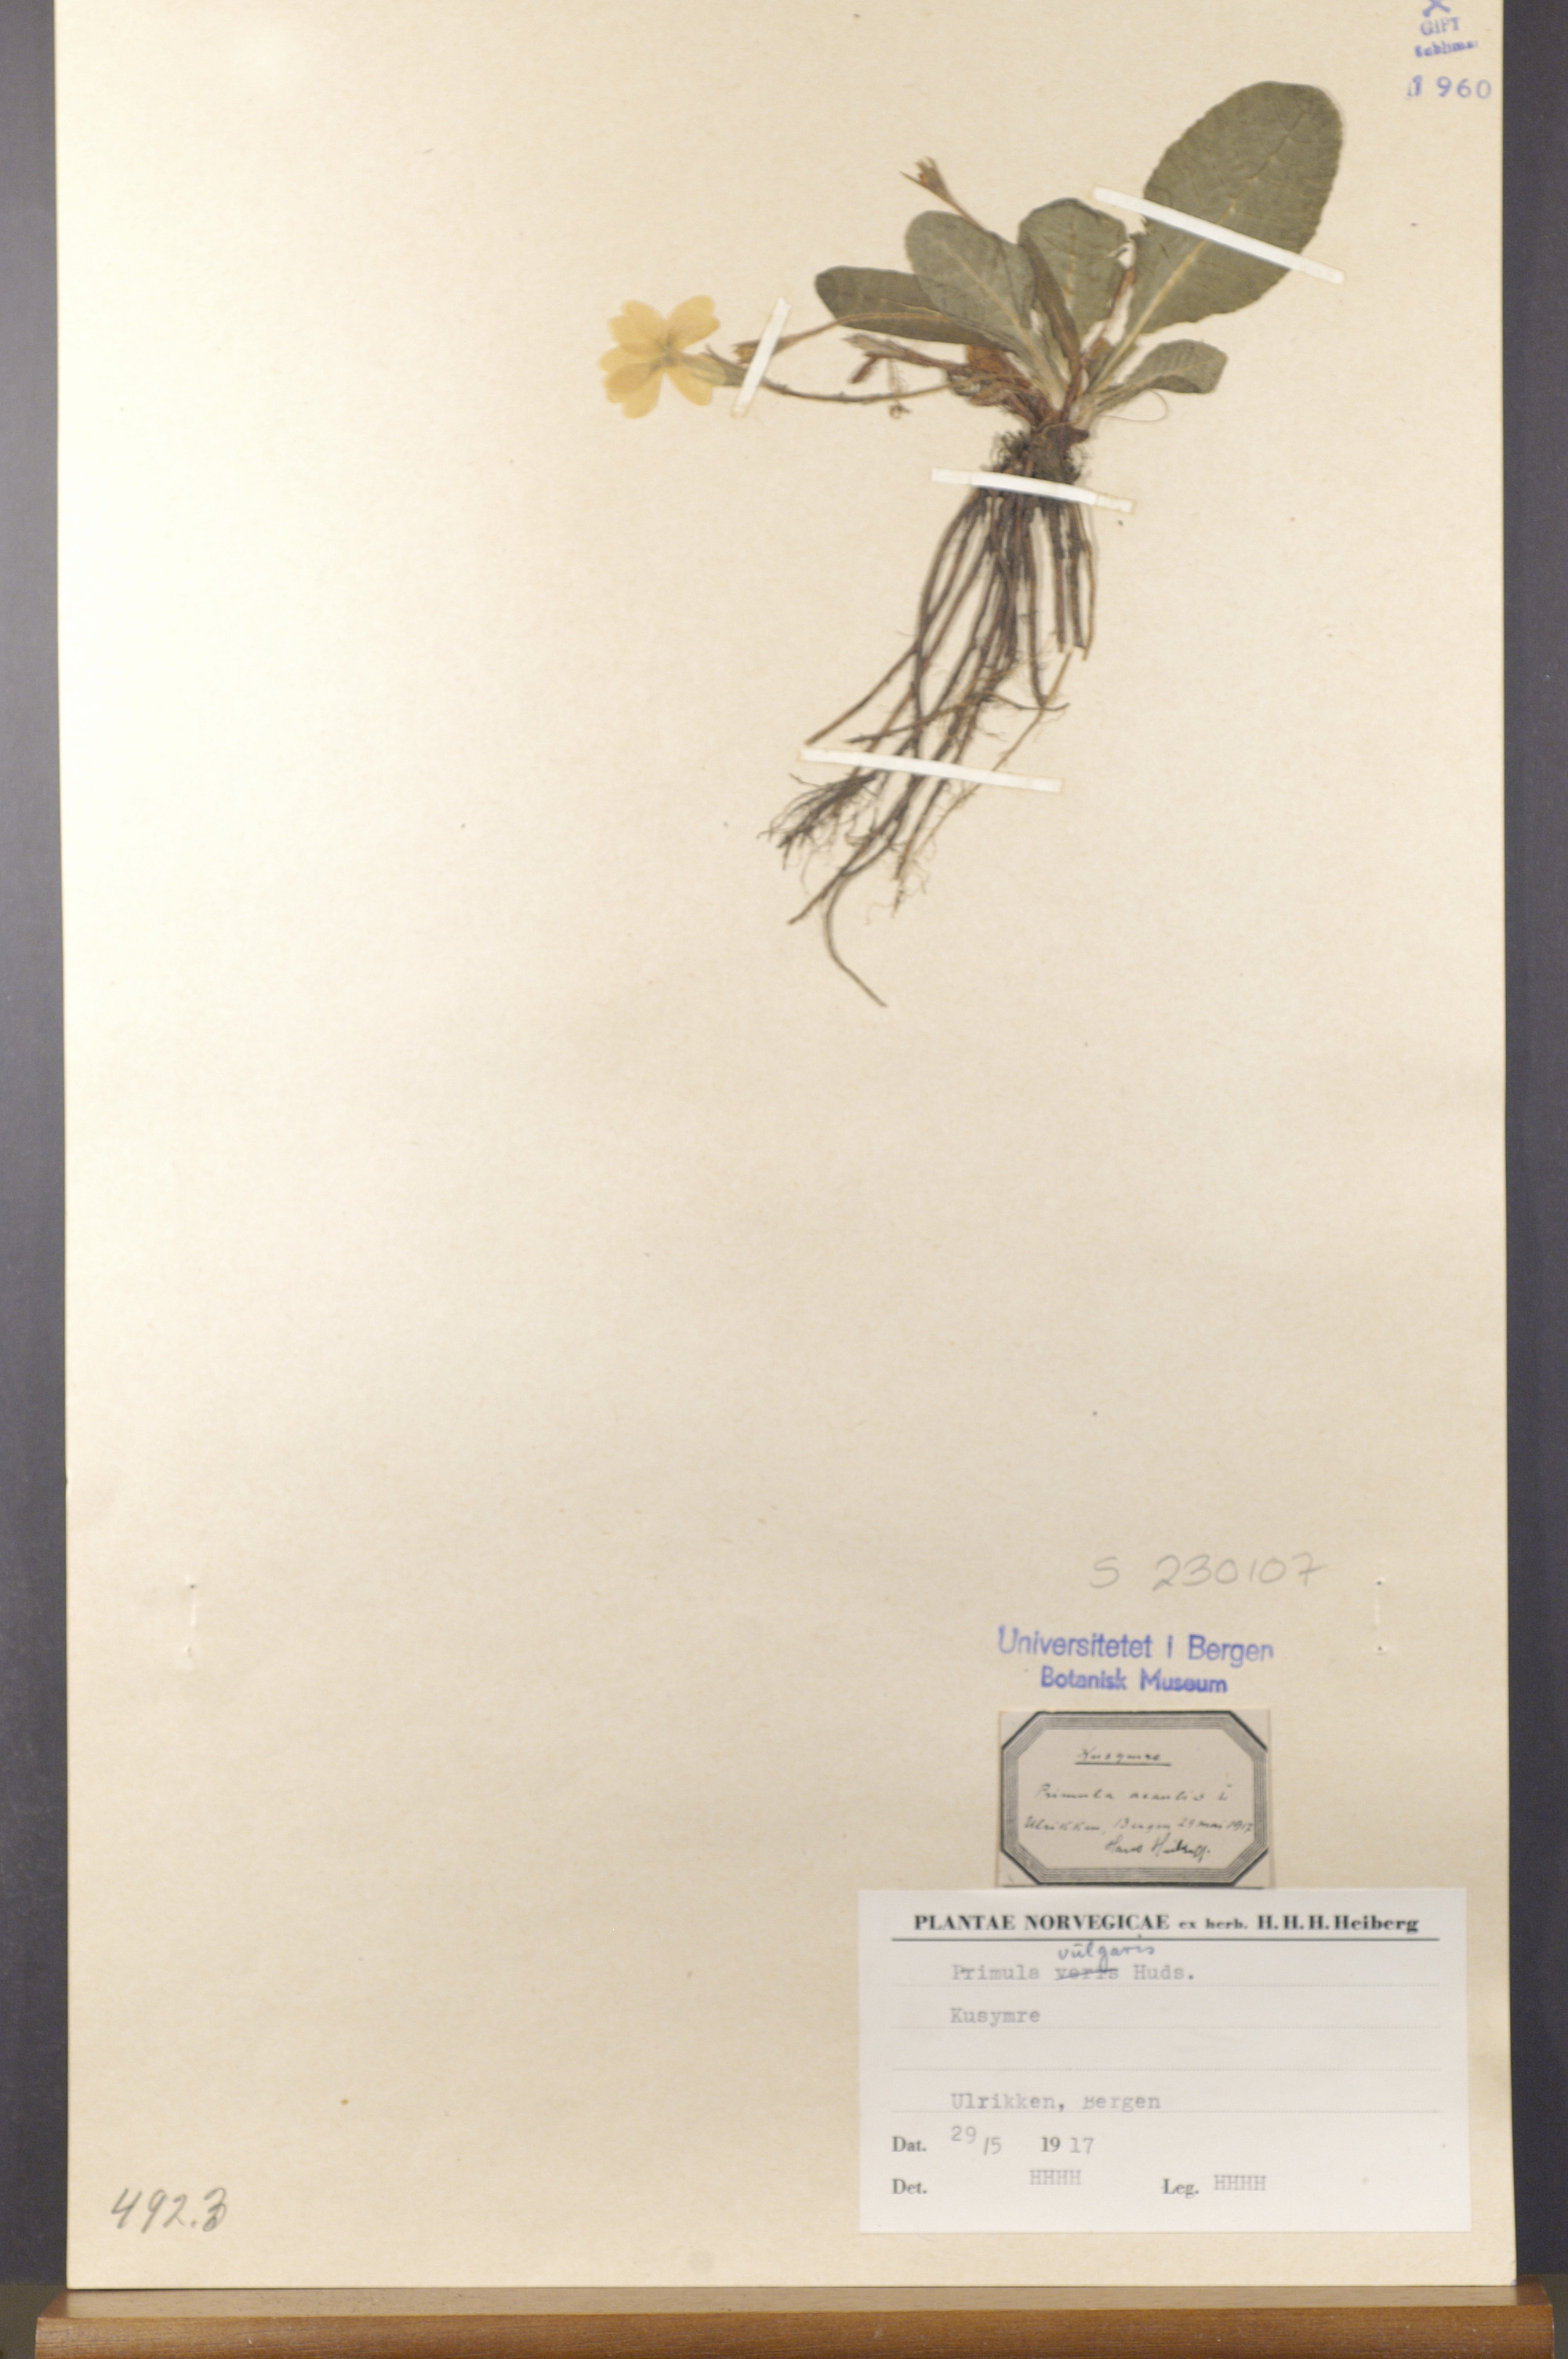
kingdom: Plantae
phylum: Tracheophyta
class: Magnoliopsida
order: Ericales
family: Primulaceae
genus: Primula
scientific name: Primula vulgaris
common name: Primrose
